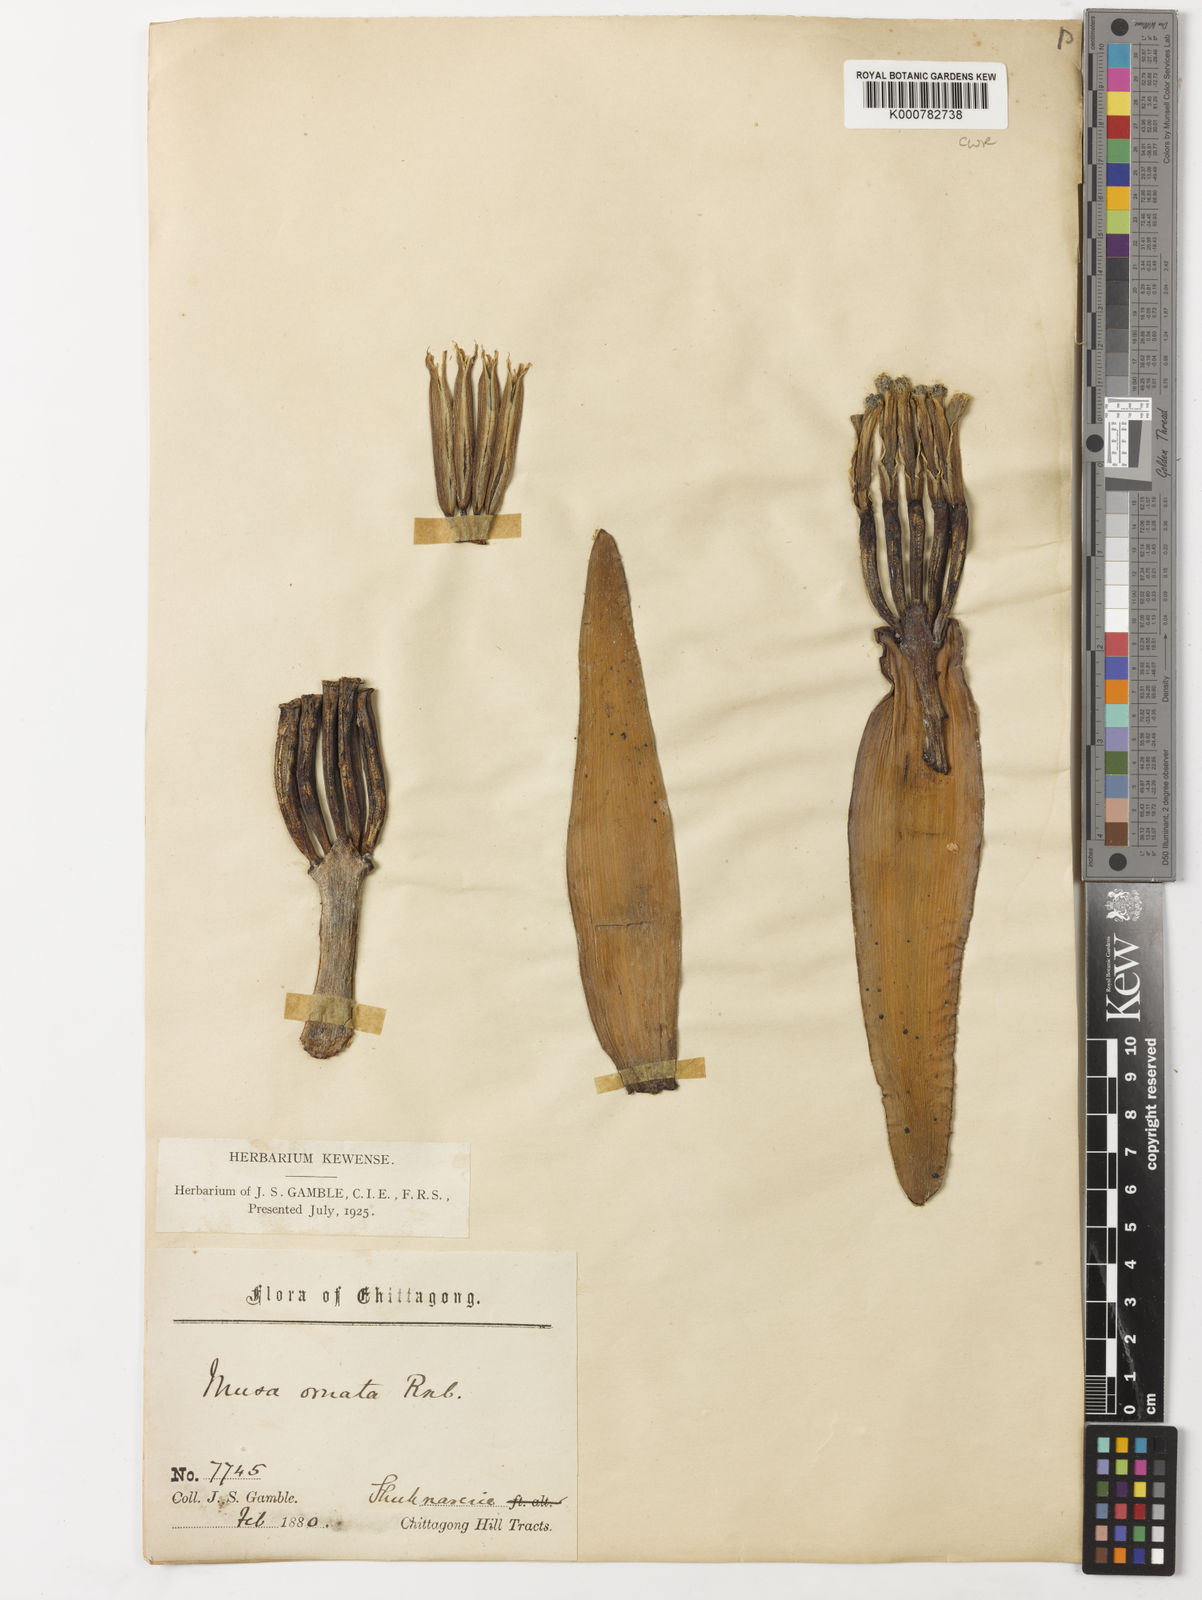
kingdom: Plantae
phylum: Tracheophyta
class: Liliopsida
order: Zingiberales
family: Musaceae
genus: Musa
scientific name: Musa ornata
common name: Flowering banana
